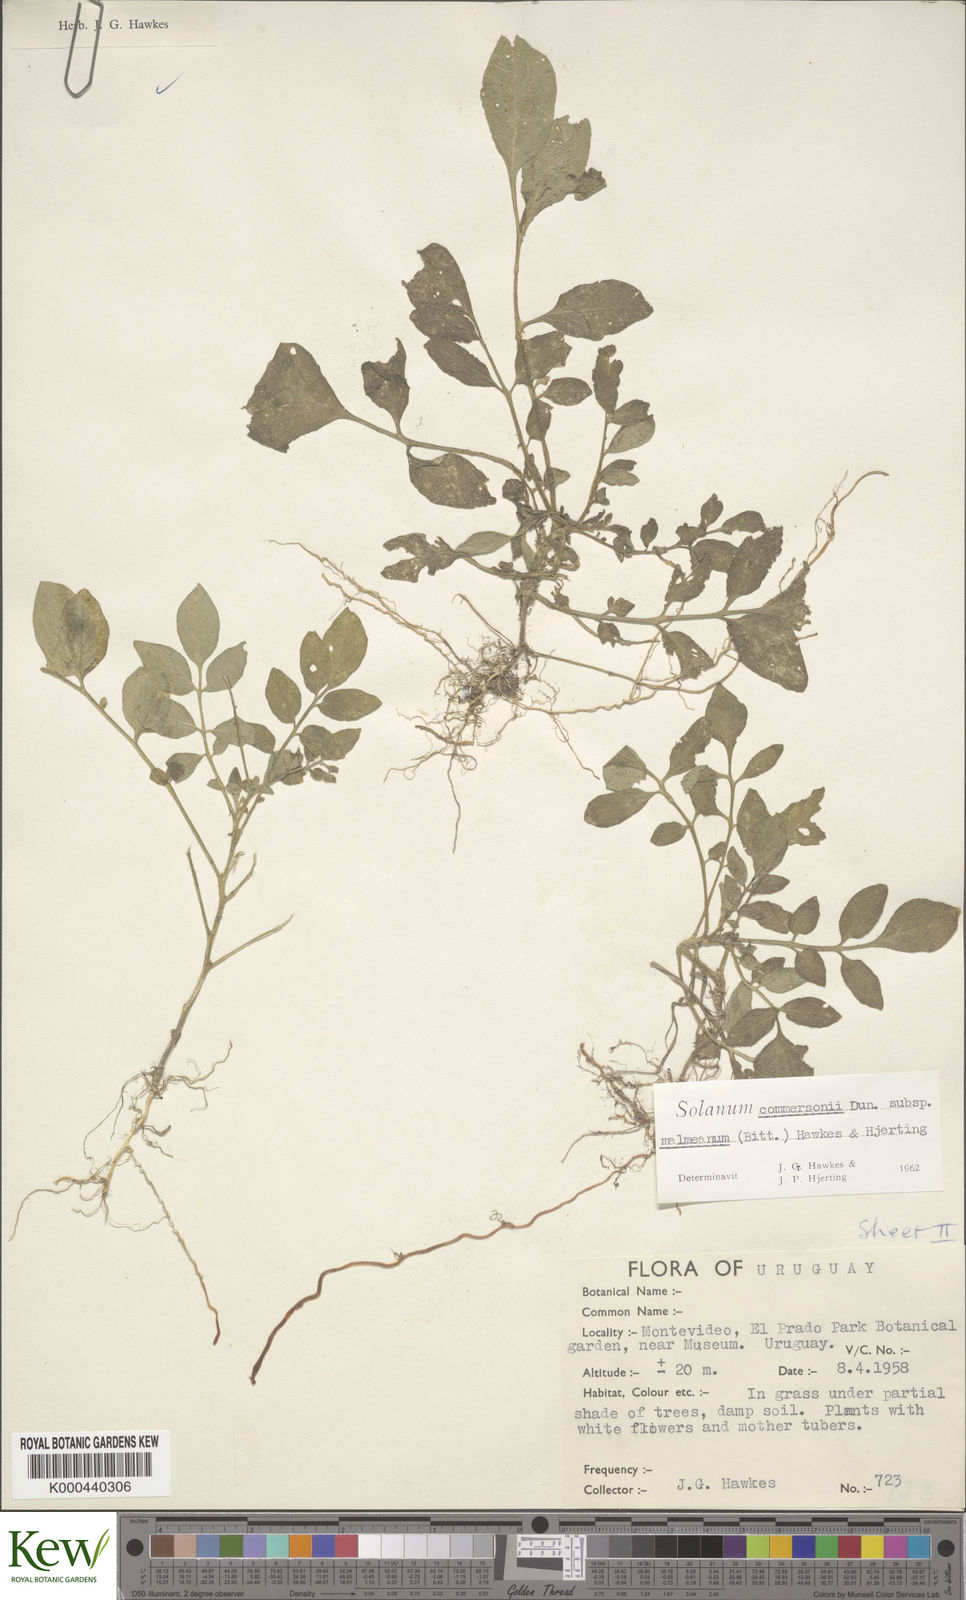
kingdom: Plantae
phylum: Tracheophyta
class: Magnoliopsida
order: Solanales
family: Solanaceae
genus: Solanum
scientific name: Solanum commersonii
